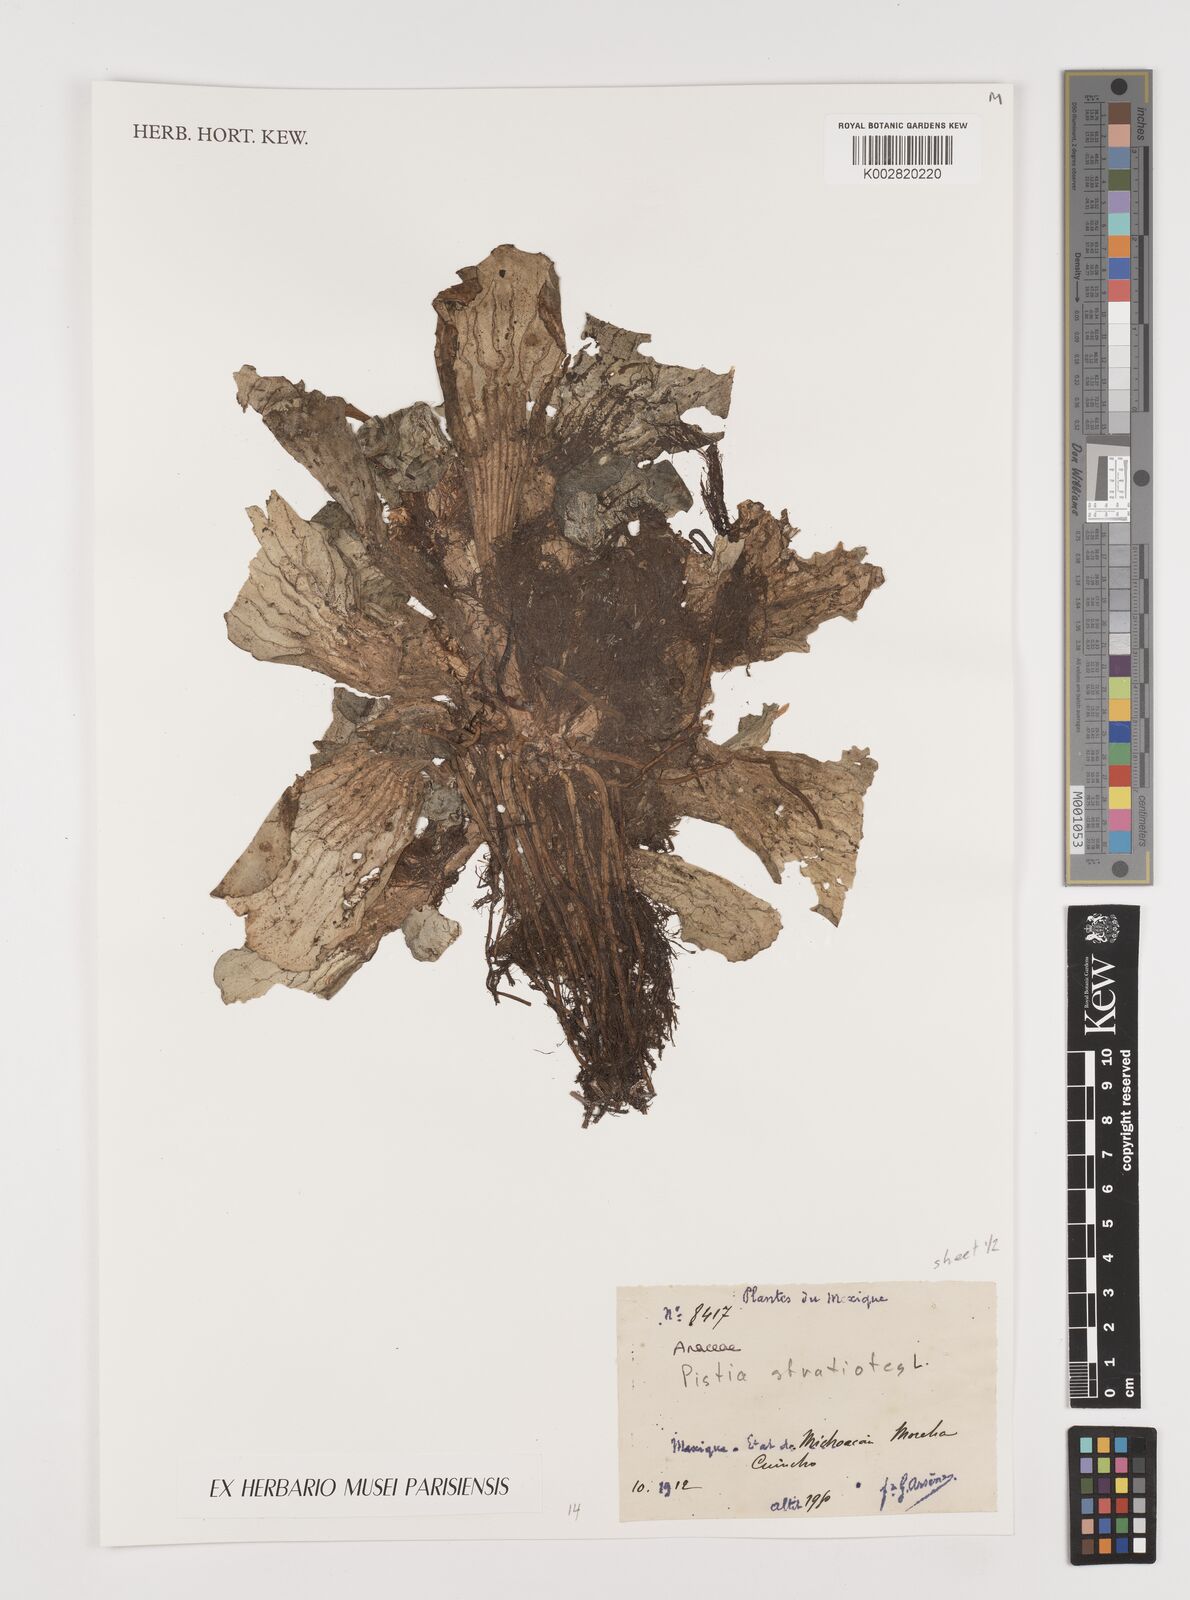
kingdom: Plantae
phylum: Tracheophyta
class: Liliopsida
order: Alismatales
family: Araceae
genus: Pistia
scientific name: Pistia stratiotes
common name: Water lettuce
